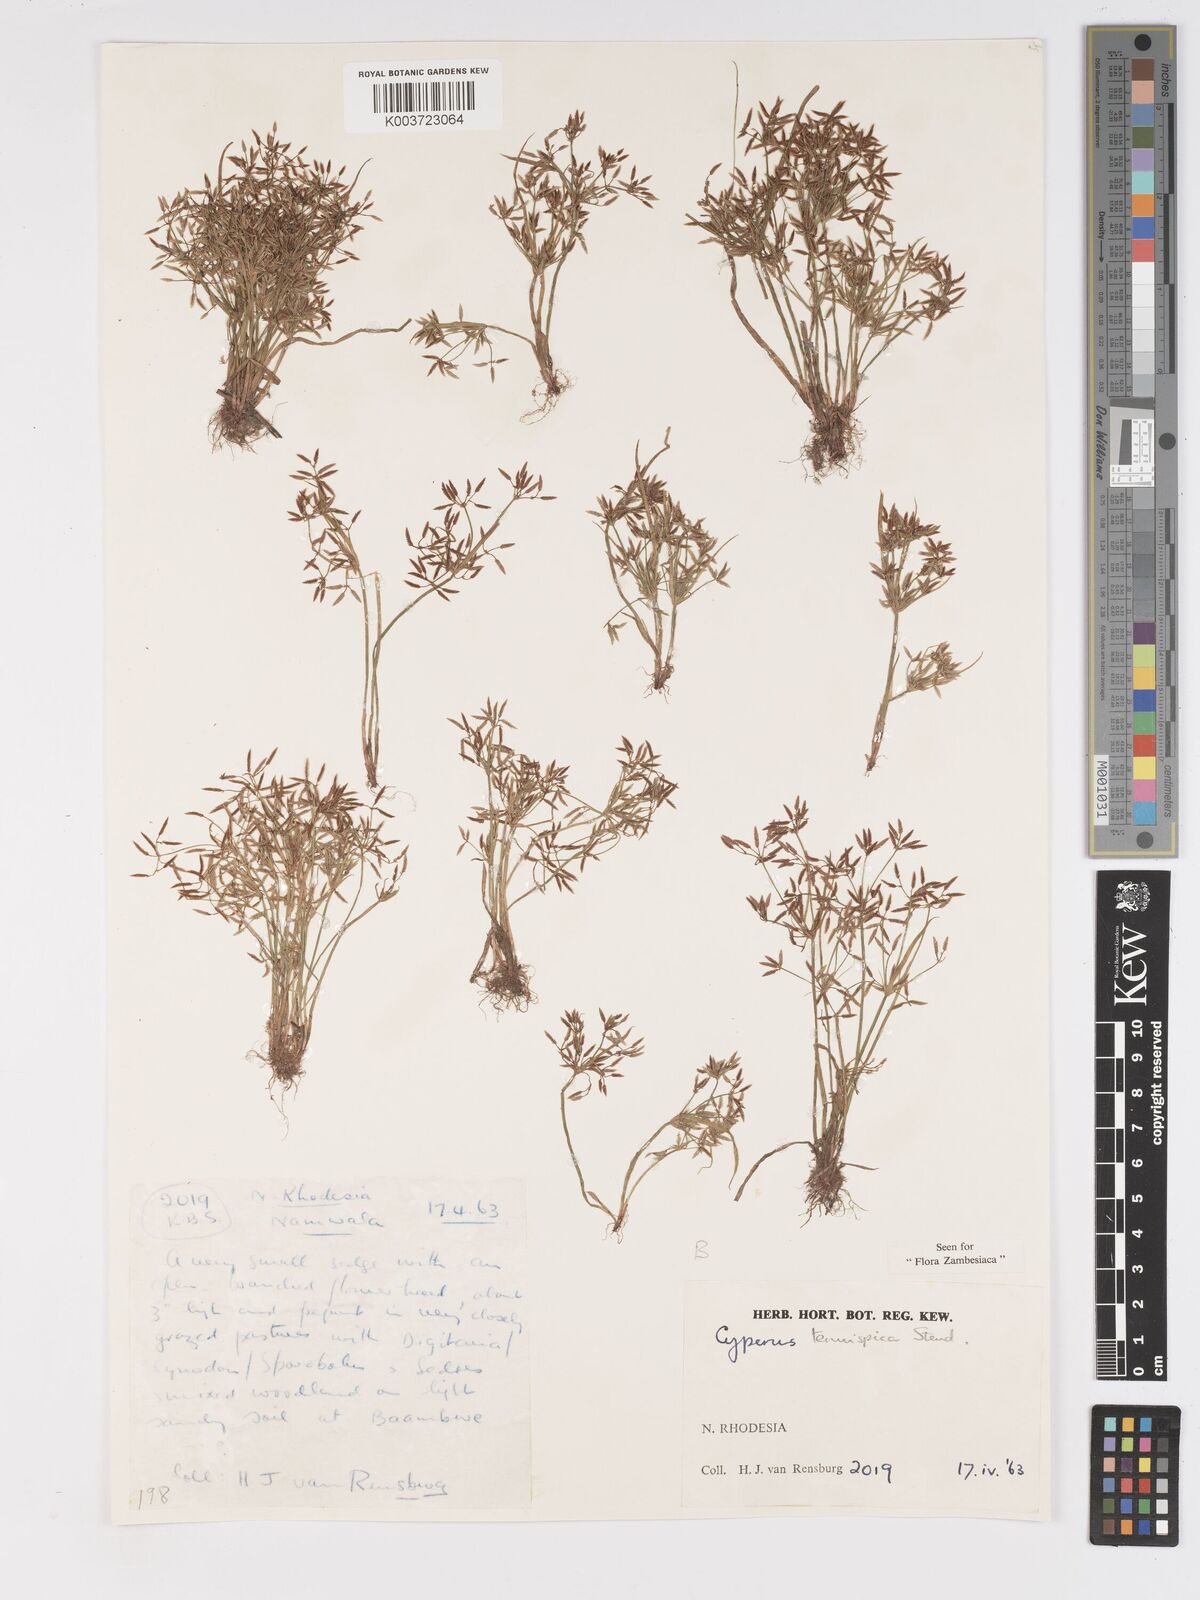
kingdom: Plantae
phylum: Tracheophyta
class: Liliopsida
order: Poales
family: Cyperaceae
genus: Cyperus
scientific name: Cyperus tenuispica
